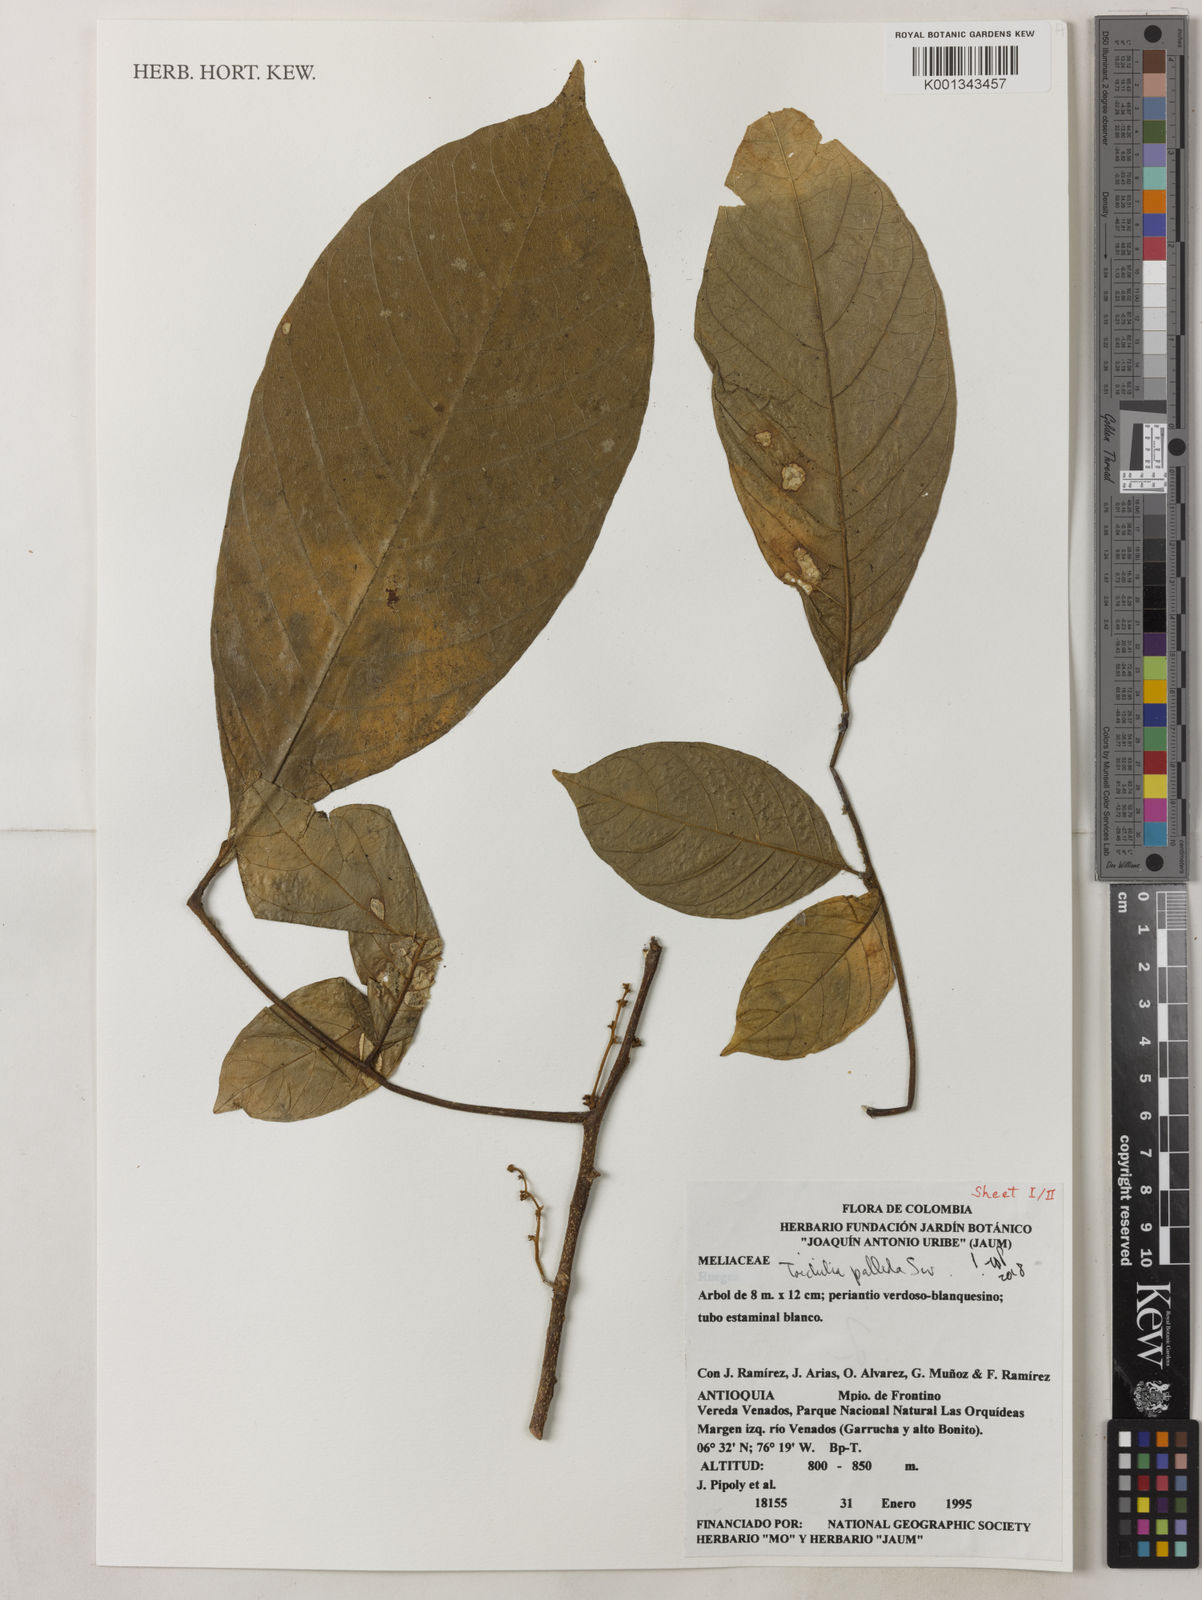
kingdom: Plantae
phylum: Tracheophyta
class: Magnoliopsida
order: Sapindales
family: Meliaceae
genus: Trichilia
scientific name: Trichilia pallida
